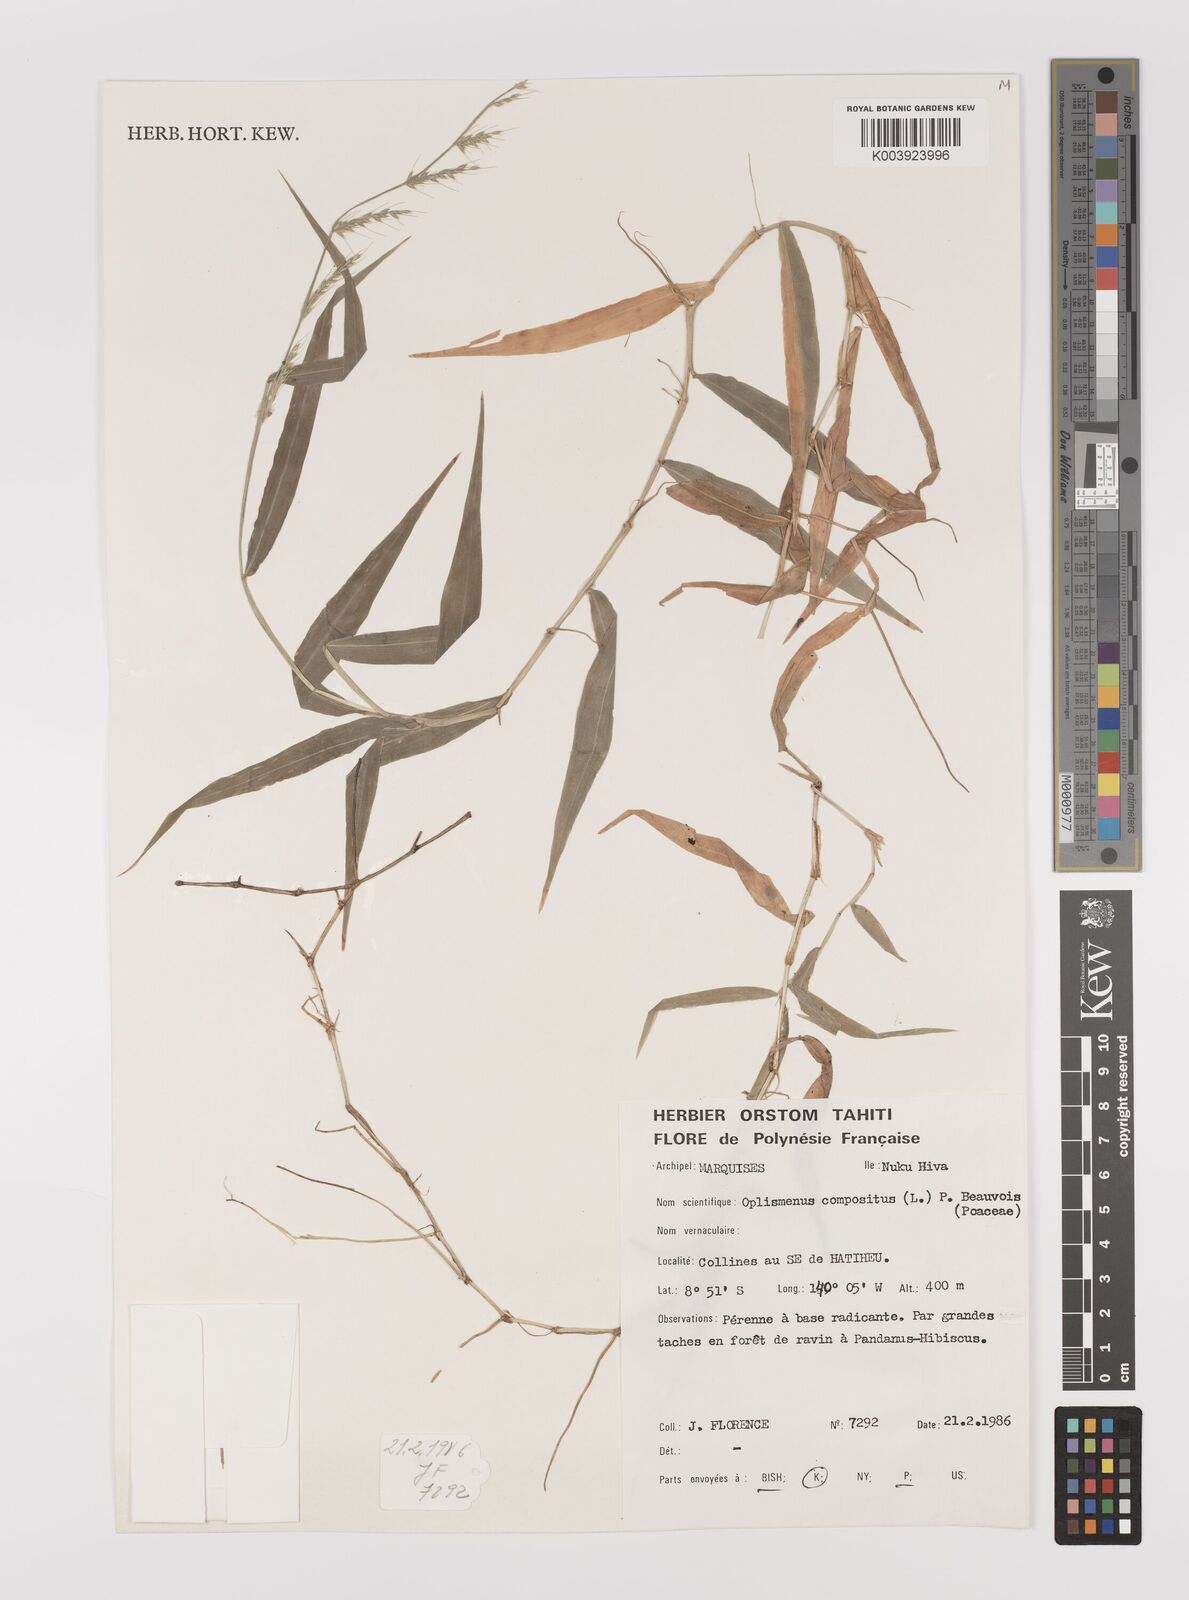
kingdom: Plantae
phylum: Tracheophyta
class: Liliopsida
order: Poales
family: Poaceae
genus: Oplismenus
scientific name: Oplismenus compositus
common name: Running mountain grass
